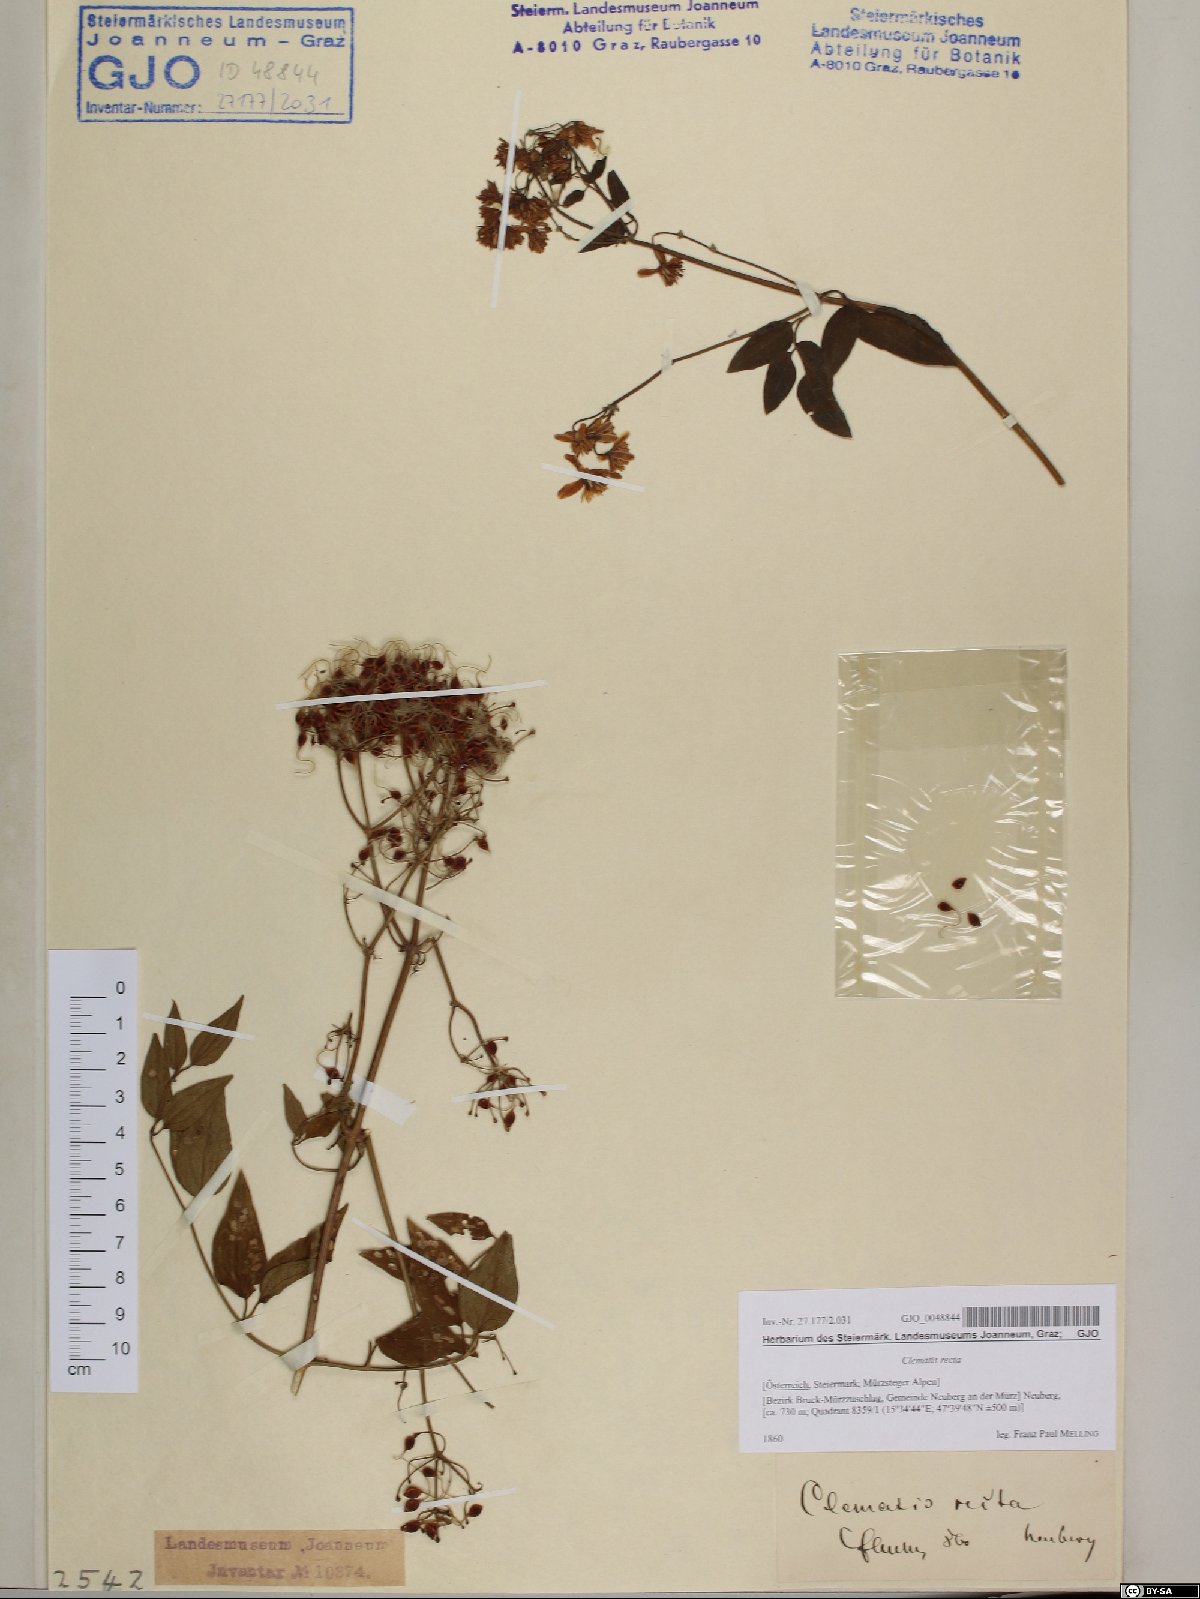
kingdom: Plantae
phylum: Tracheophyta
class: Magnoliopsida
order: Ranunculales
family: Ranunculaceae
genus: Clematis
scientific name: Clematis recta
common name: Ground clematis
